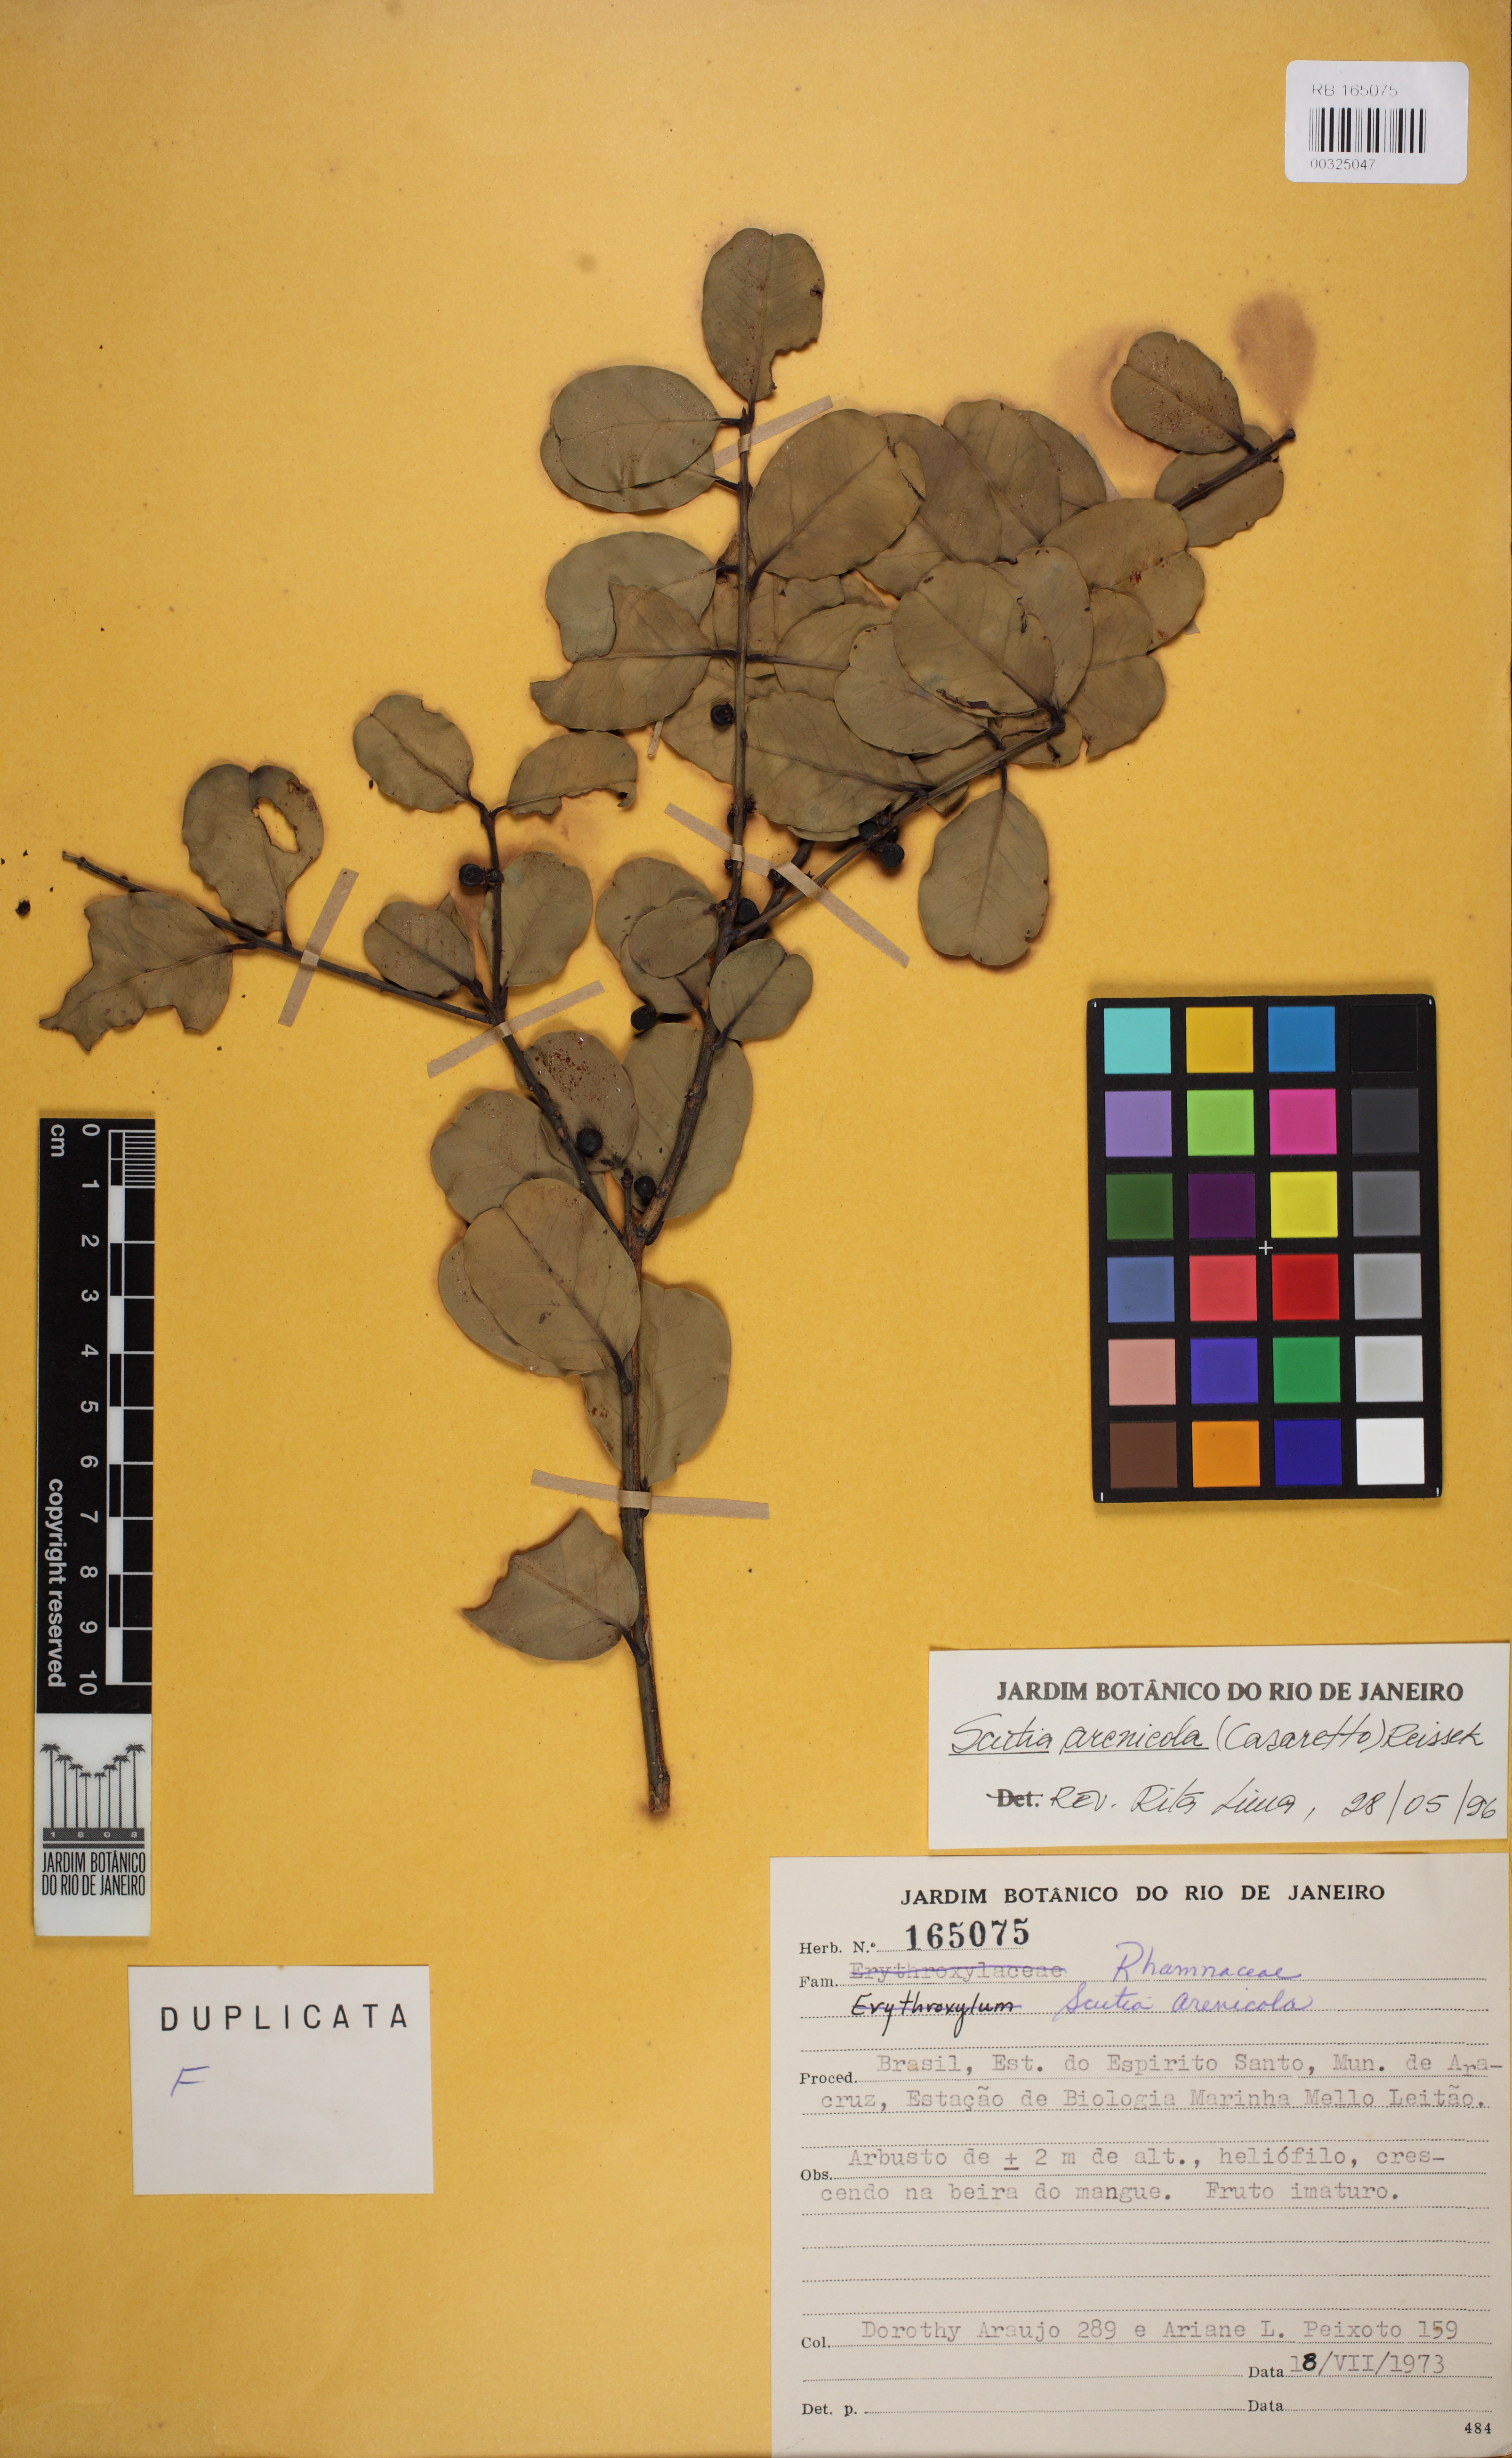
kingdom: Plantae
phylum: Tracheophyta
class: Magnoliopsida
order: Rosales
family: Rhamnaceae
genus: Scutia
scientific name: Scutia arenicola
